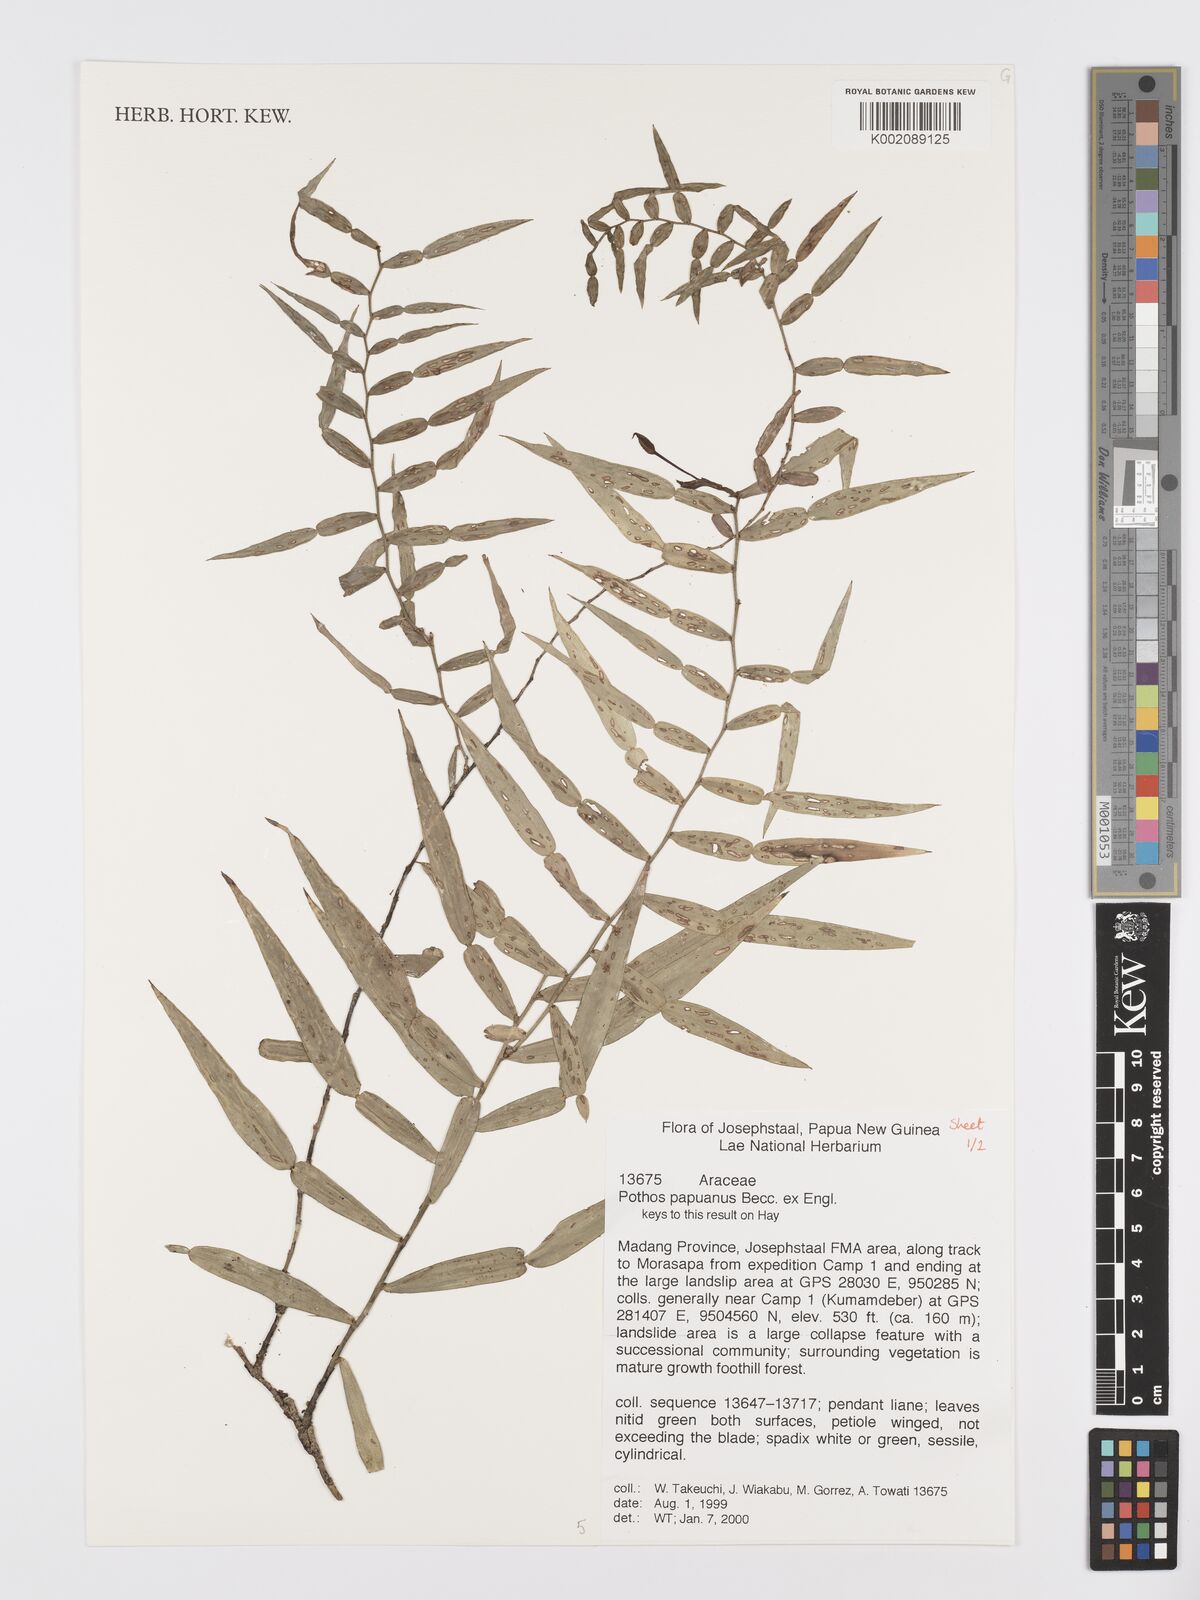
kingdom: Plantae
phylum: Tracheophyta
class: Liliopsida
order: Alismatales
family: Araceae
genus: Pothos
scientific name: Pothos papuanus
